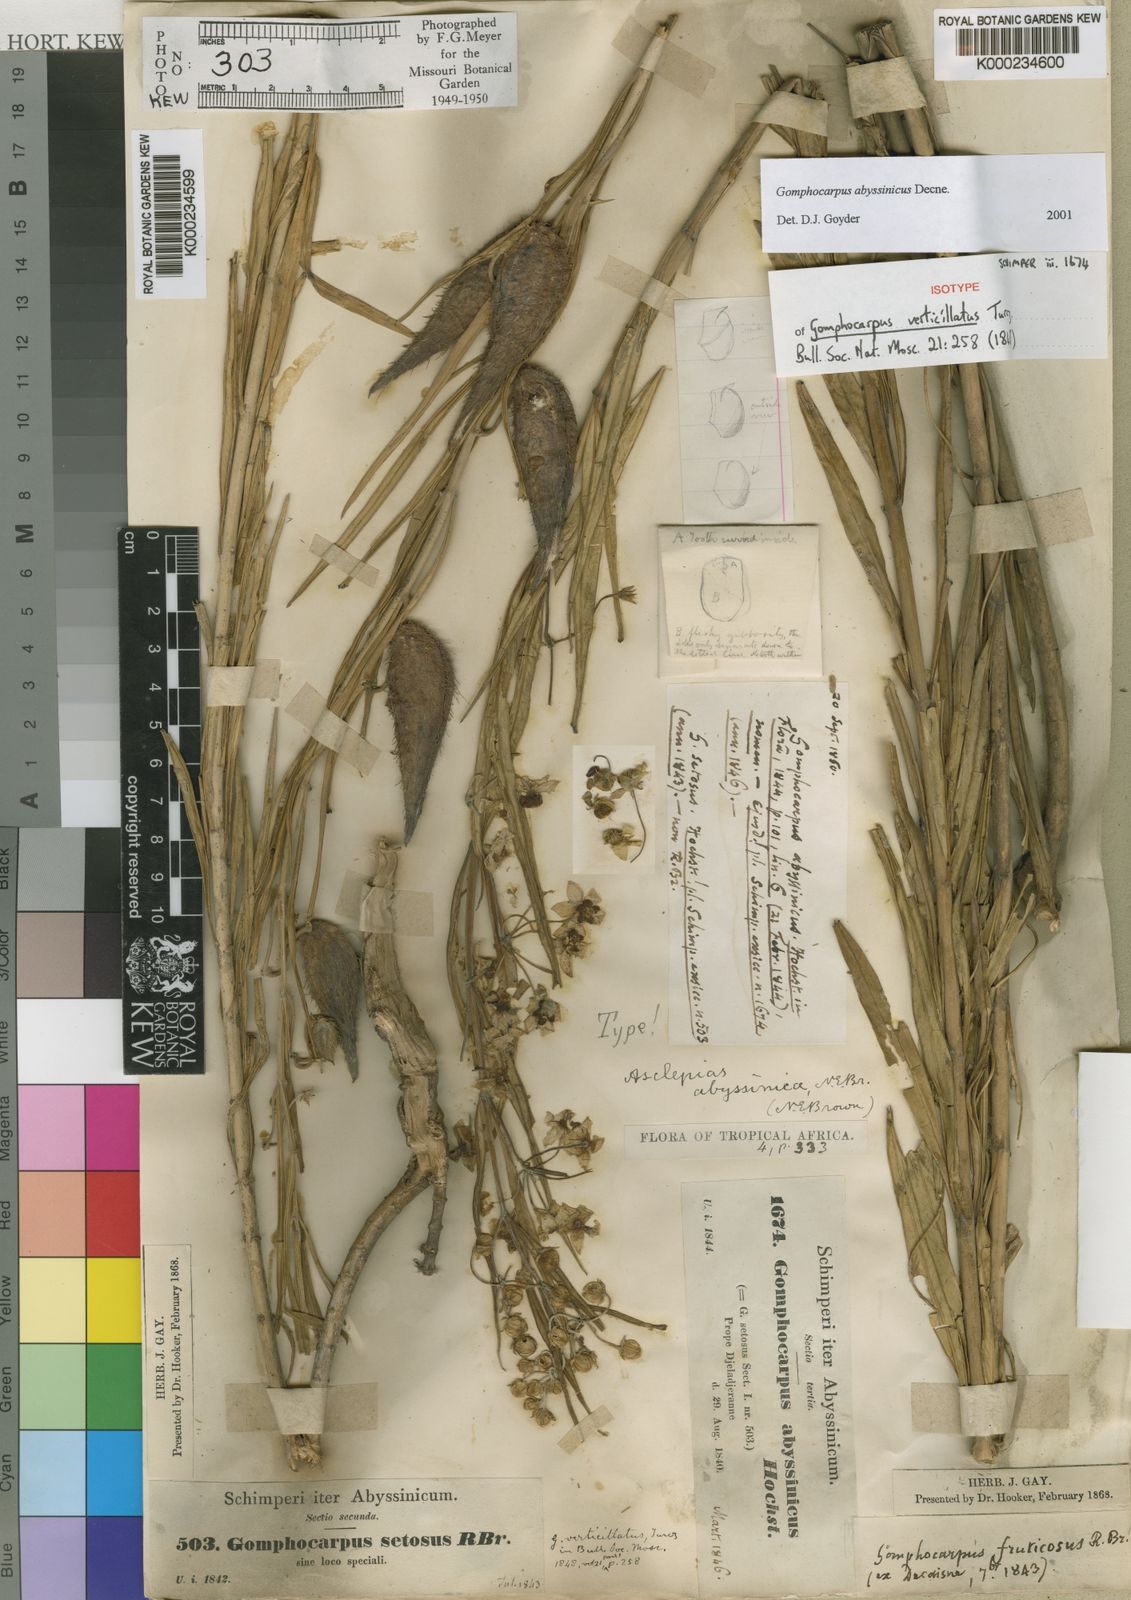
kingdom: Plantae
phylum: Tracheophyta
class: Magnoliopsida
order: Gentianales
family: Apocynaceae
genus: Gomphocarpus
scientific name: Gomphocarpus abyssinicus
